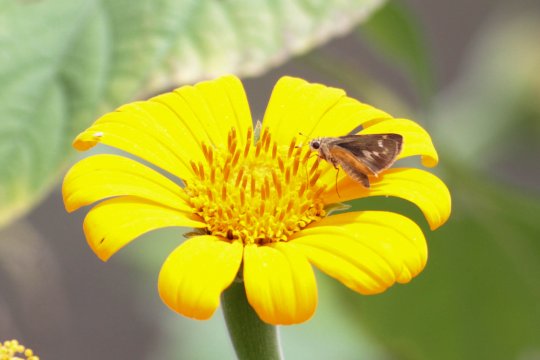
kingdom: Animalia
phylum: Arthropoda
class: Insecta
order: Lepidoptera
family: Hesperiidae
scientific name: Hesperiidae
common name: Skippers
